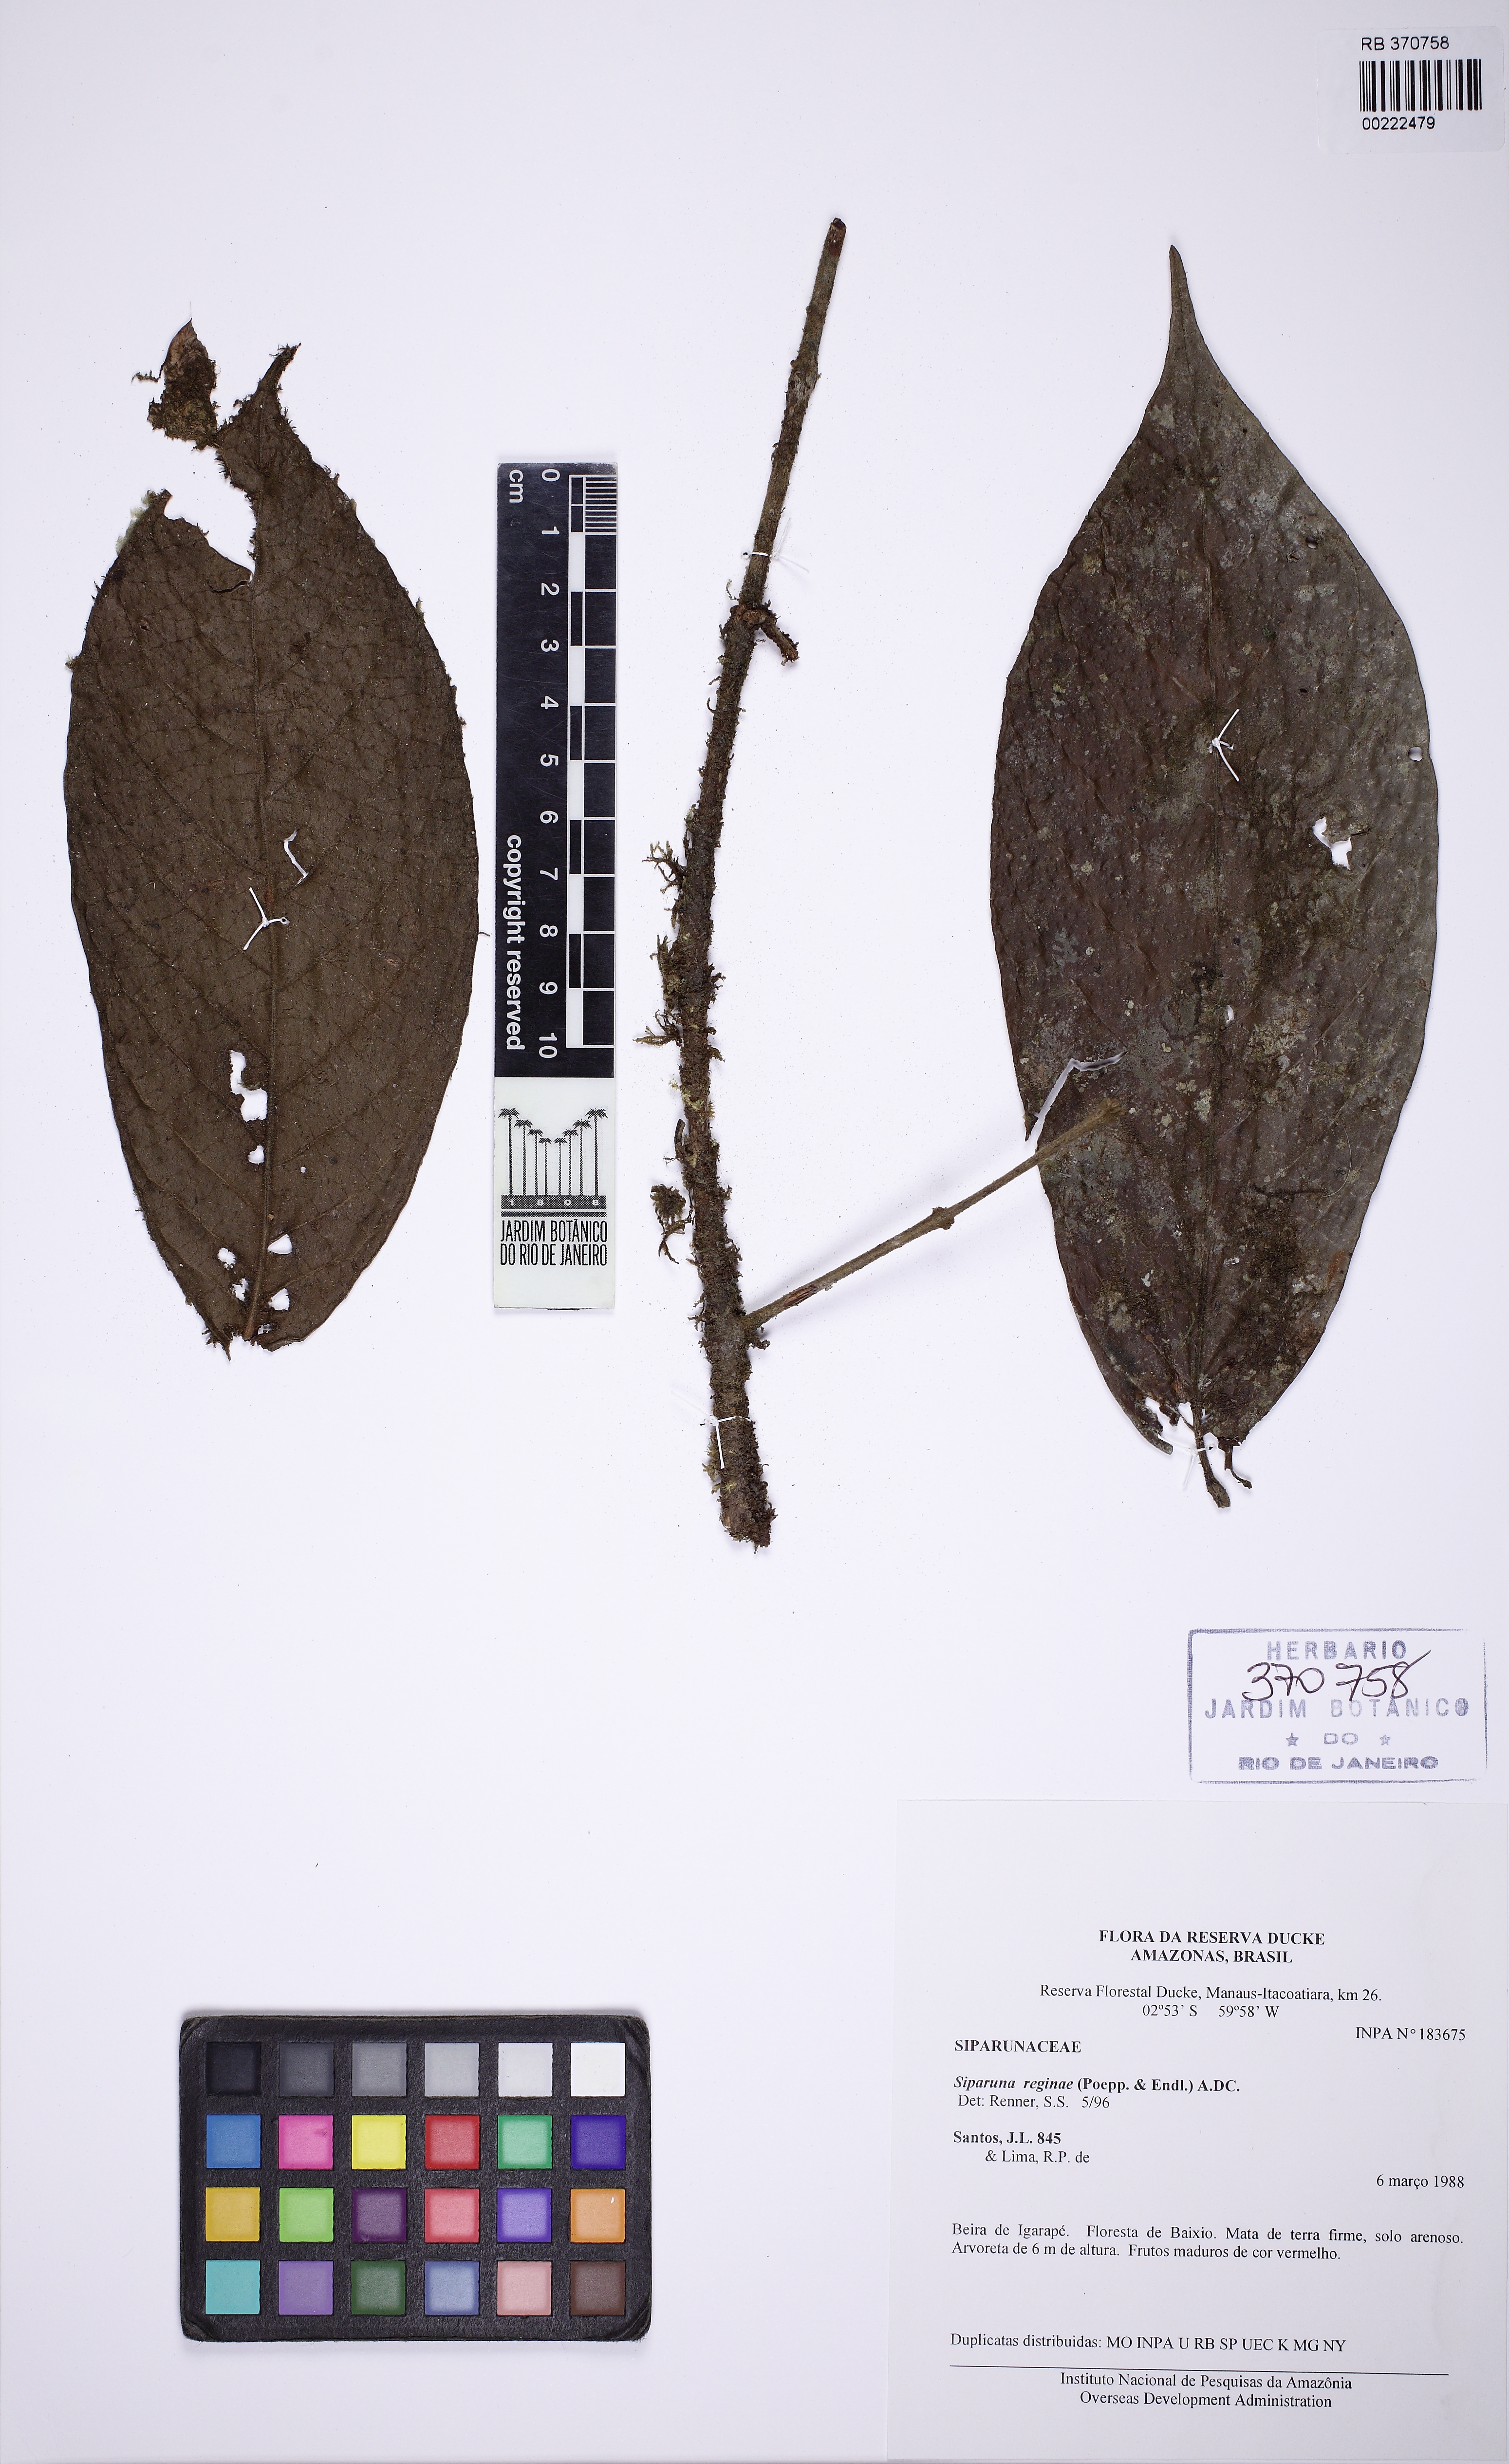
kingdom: Plantae
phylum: Tracheophyta
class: Magnoliopsida
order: Laurales
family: Siparunaceae
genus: Siparuna
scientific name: Siparuna reginae
